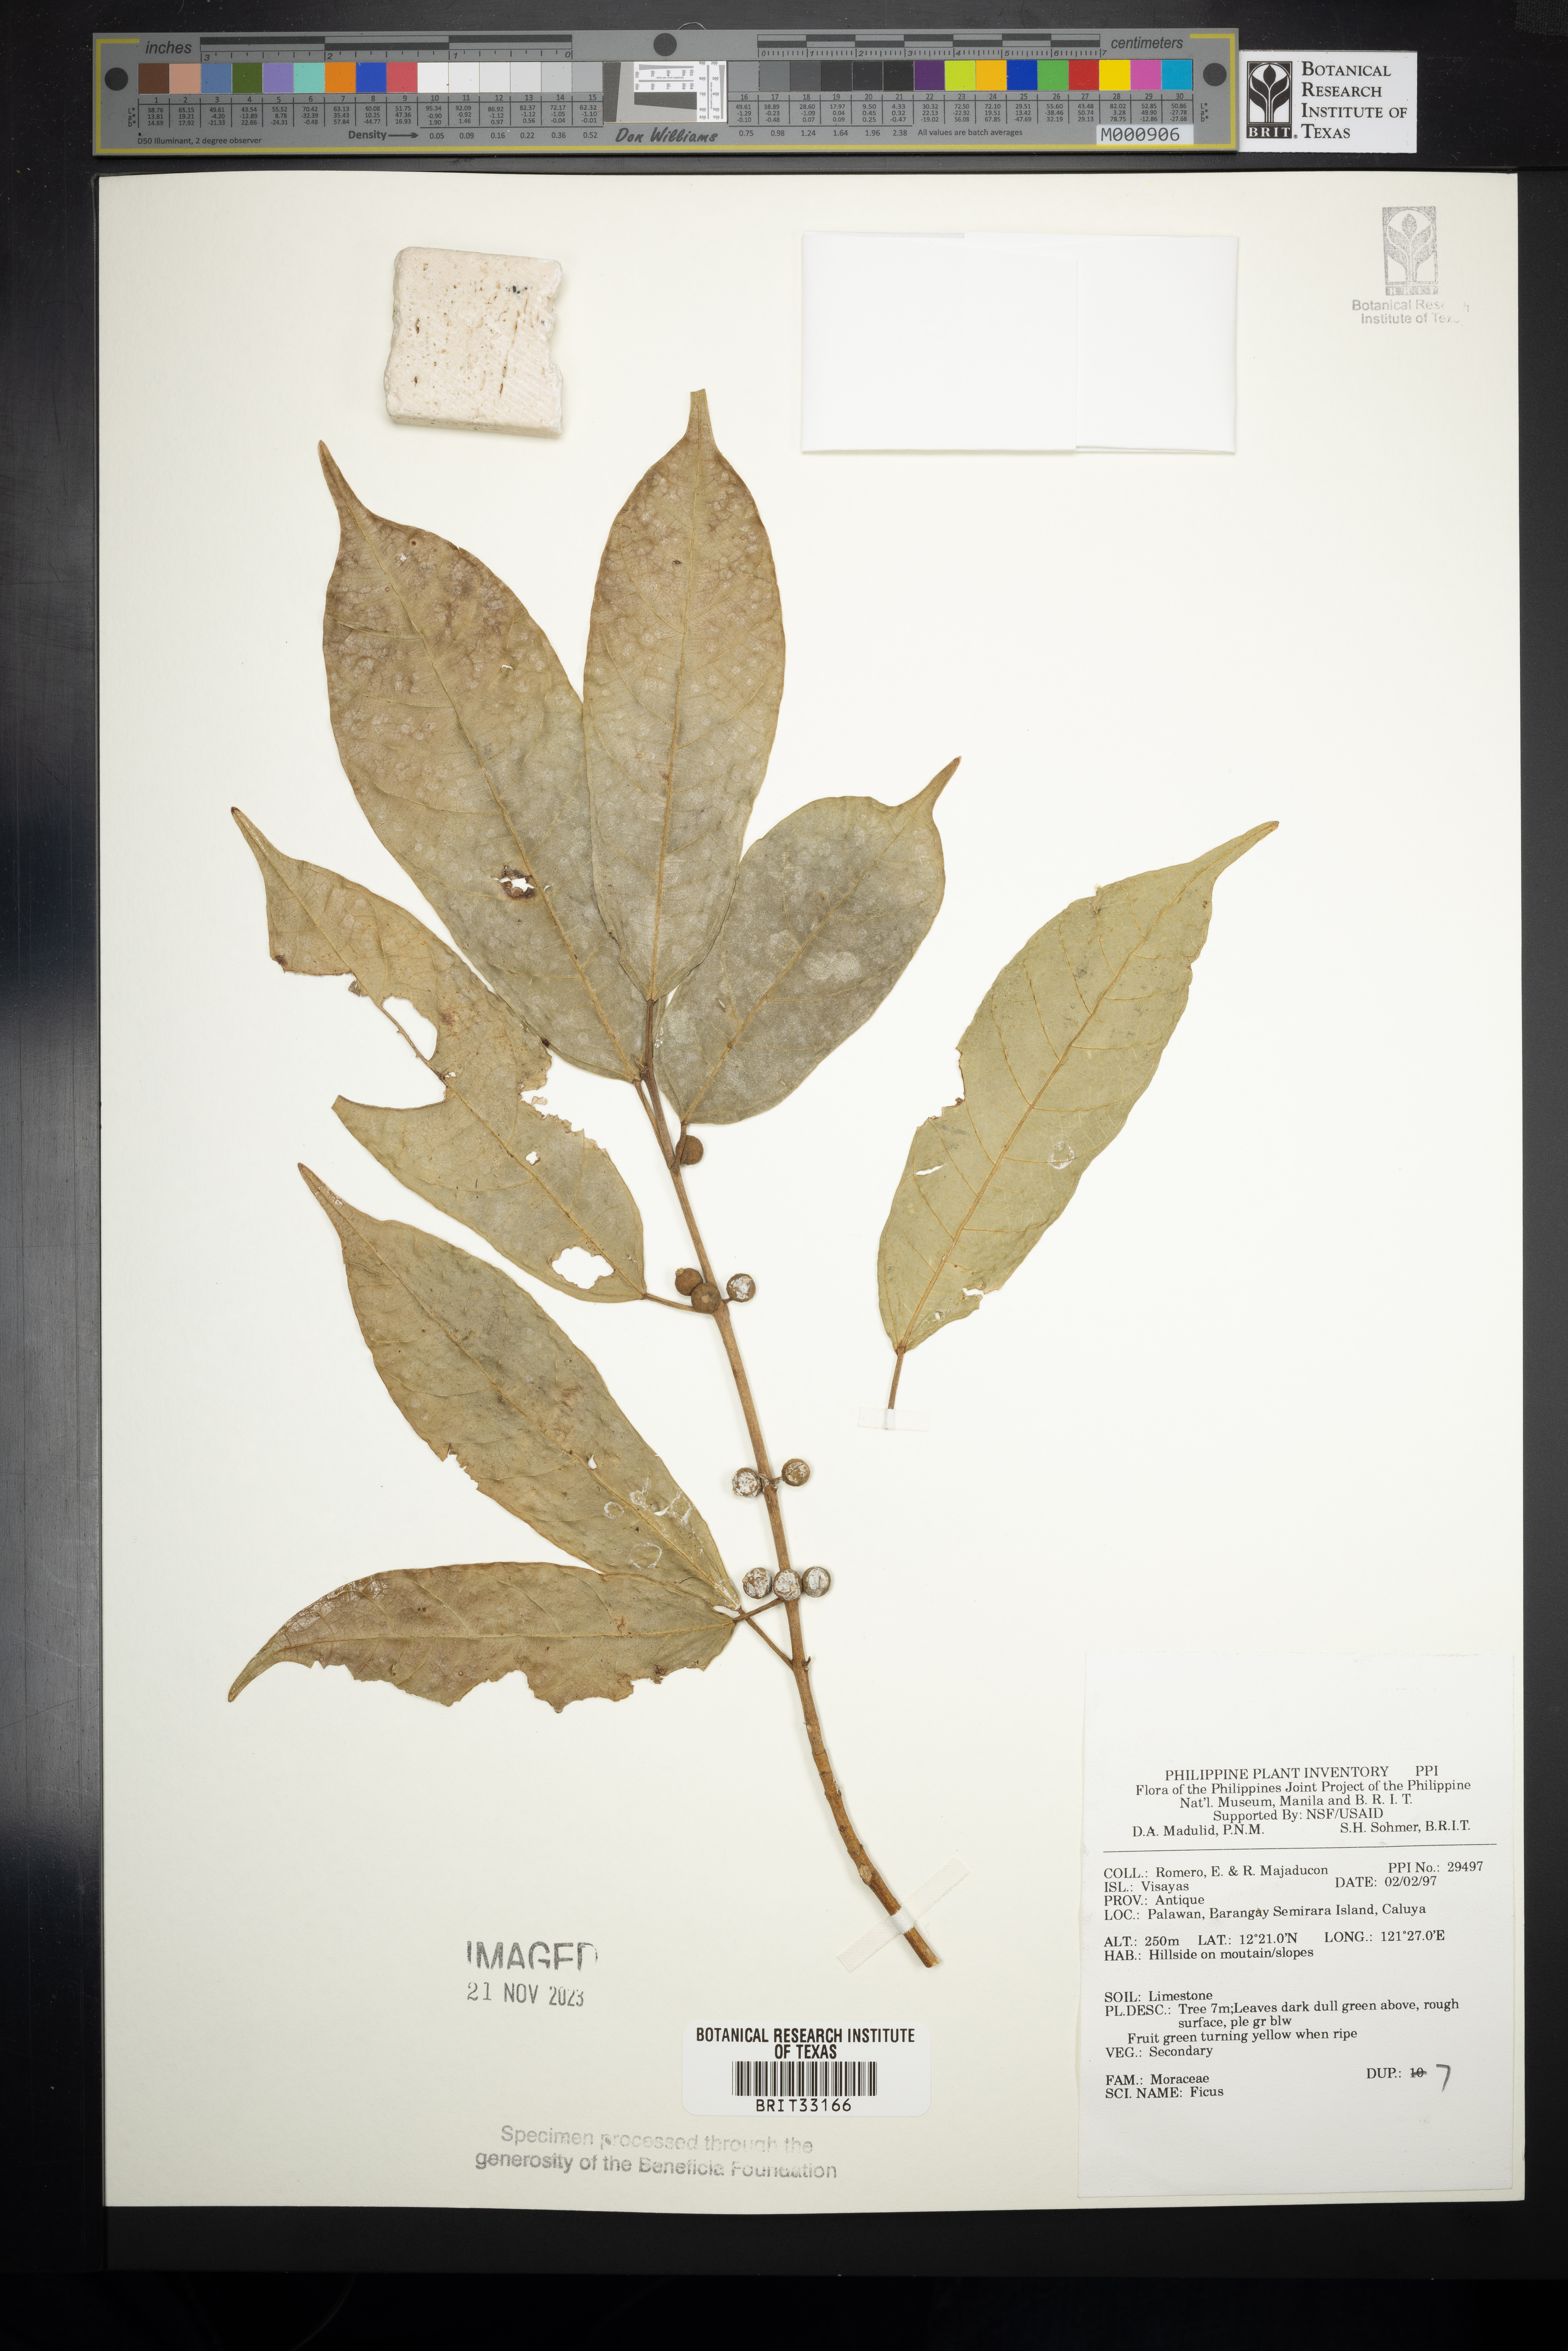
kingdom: Plantae
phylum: Tracheophyta
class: Magnoliopsida
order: Rosales
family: Moraceae
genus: Ficus
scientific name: Ficus
